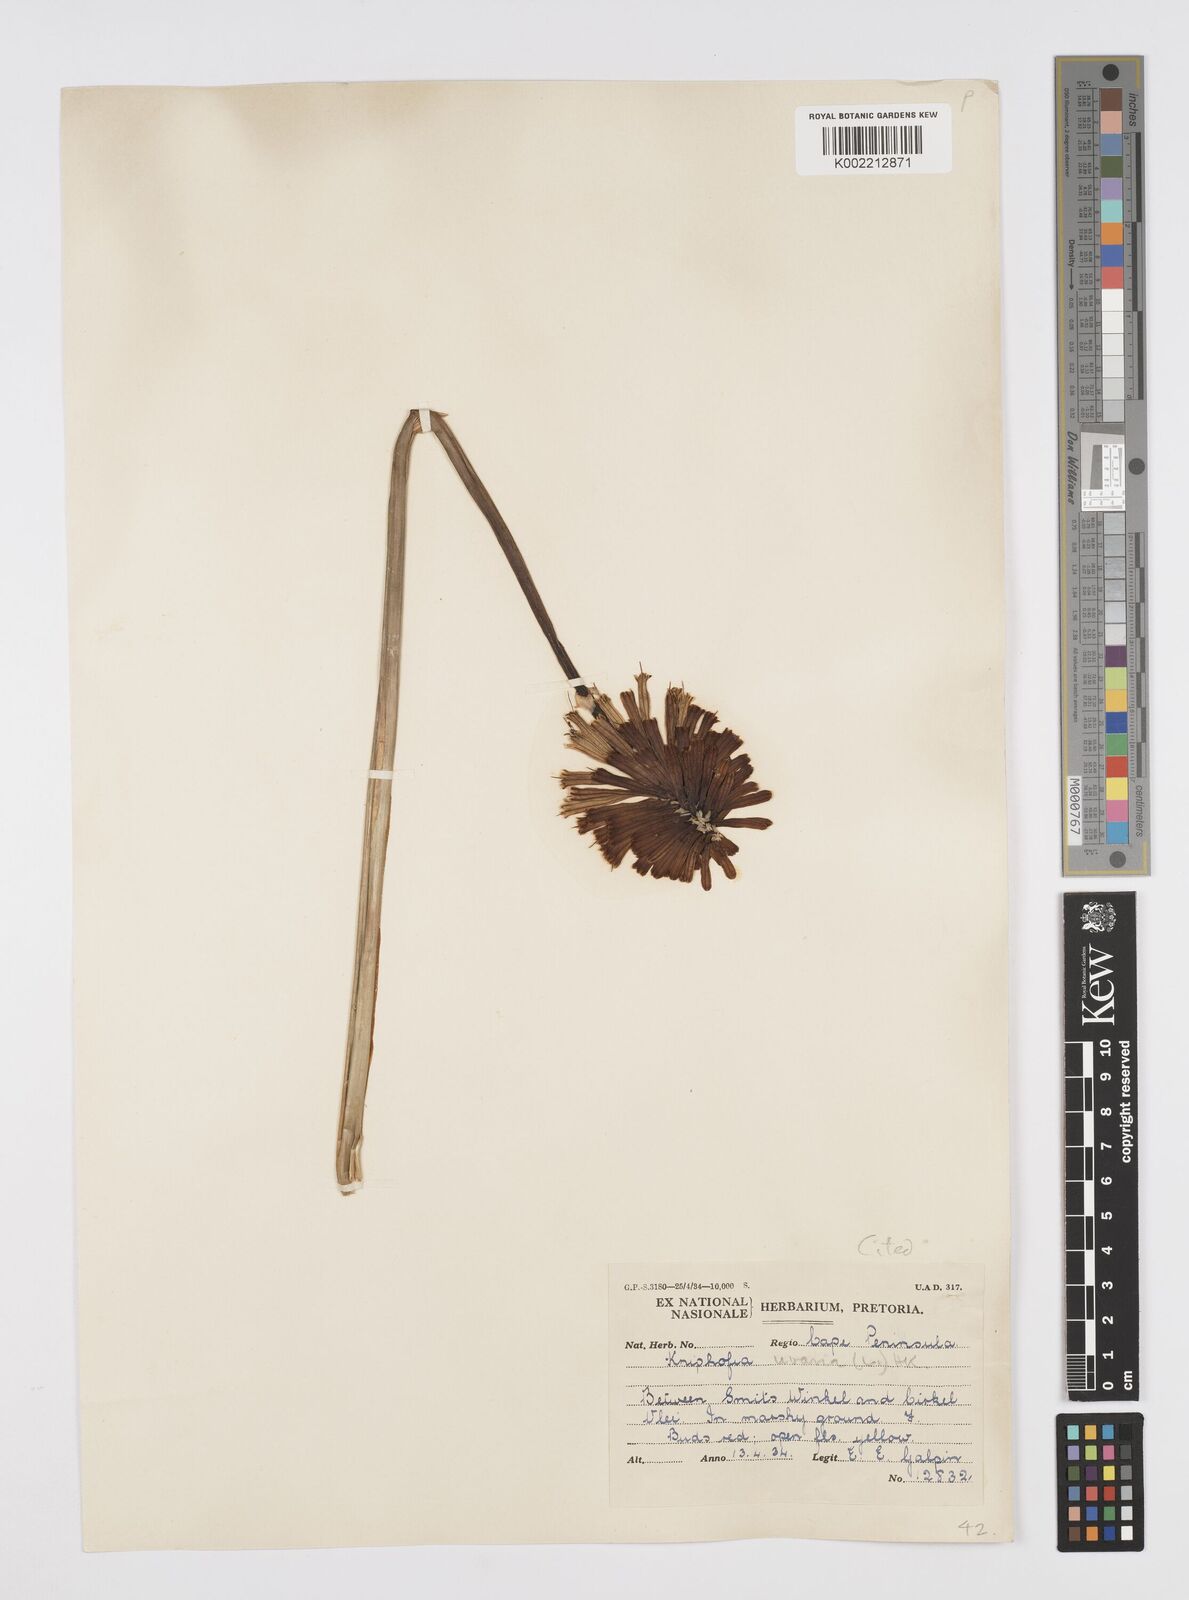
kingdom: Plantae
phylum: Tracheophyta
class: Liliopsida
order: Asparagales
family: Asphodelaceae
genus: Kniphofia
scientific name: Kniphofia uvaria
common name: Red-hot-poker
